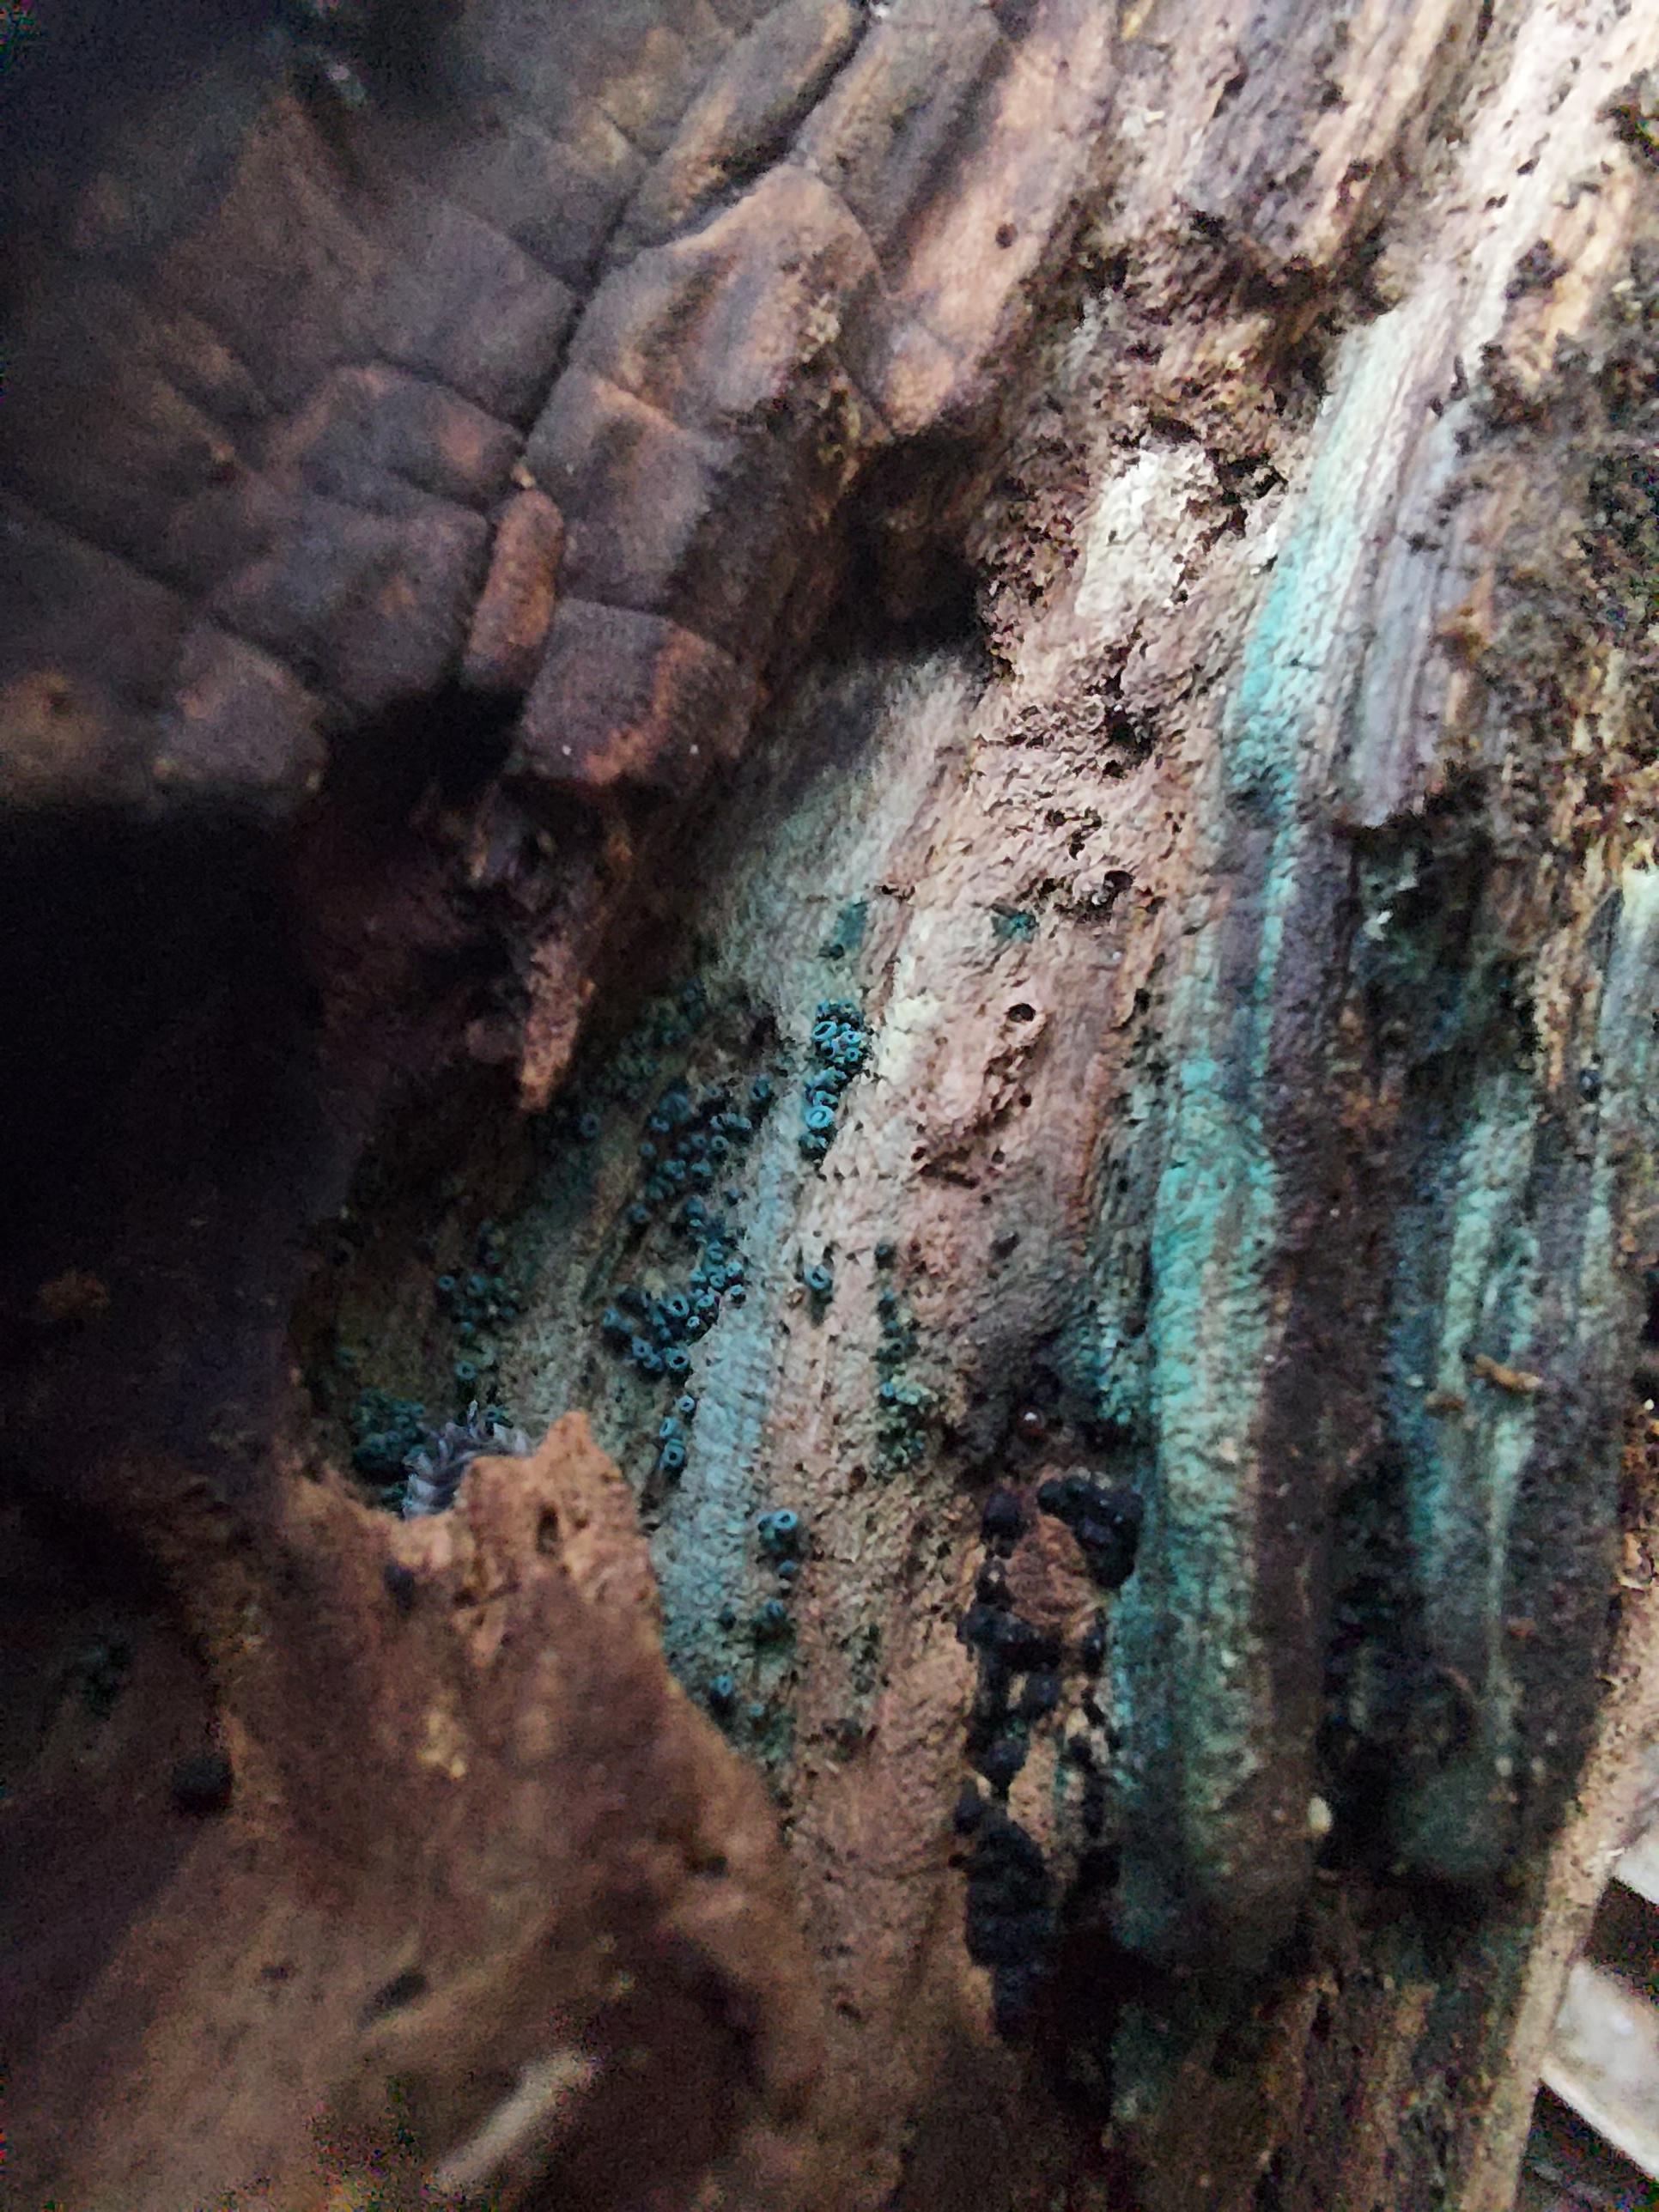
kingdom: Fungi
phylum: Ascomycota
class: Leotiomycetes
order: Helotiales
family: Chlorociboriaceae
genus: Chlorociboria
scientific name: Chlorociboria aeruginascens
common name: almindelig grønskive
